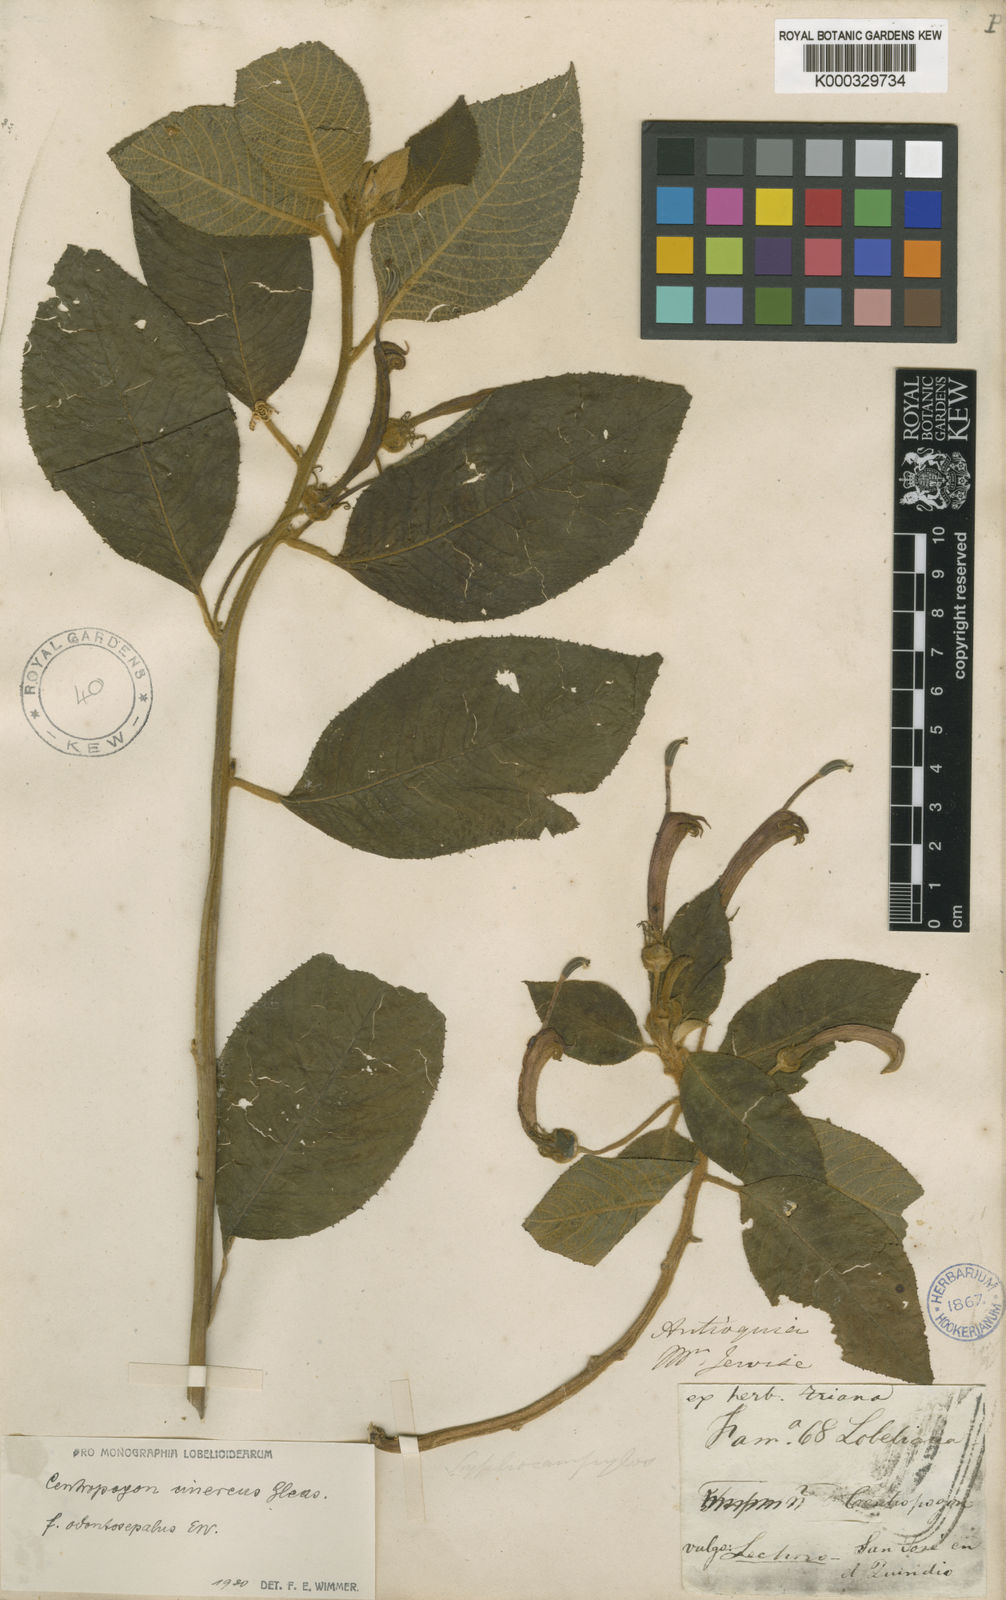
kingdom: Plantae
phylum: Tracheophyta
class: Magnoliopsida
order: Asterales
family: Campanulaceae
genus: Centropogon
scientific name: Centropogon verbascifolius
